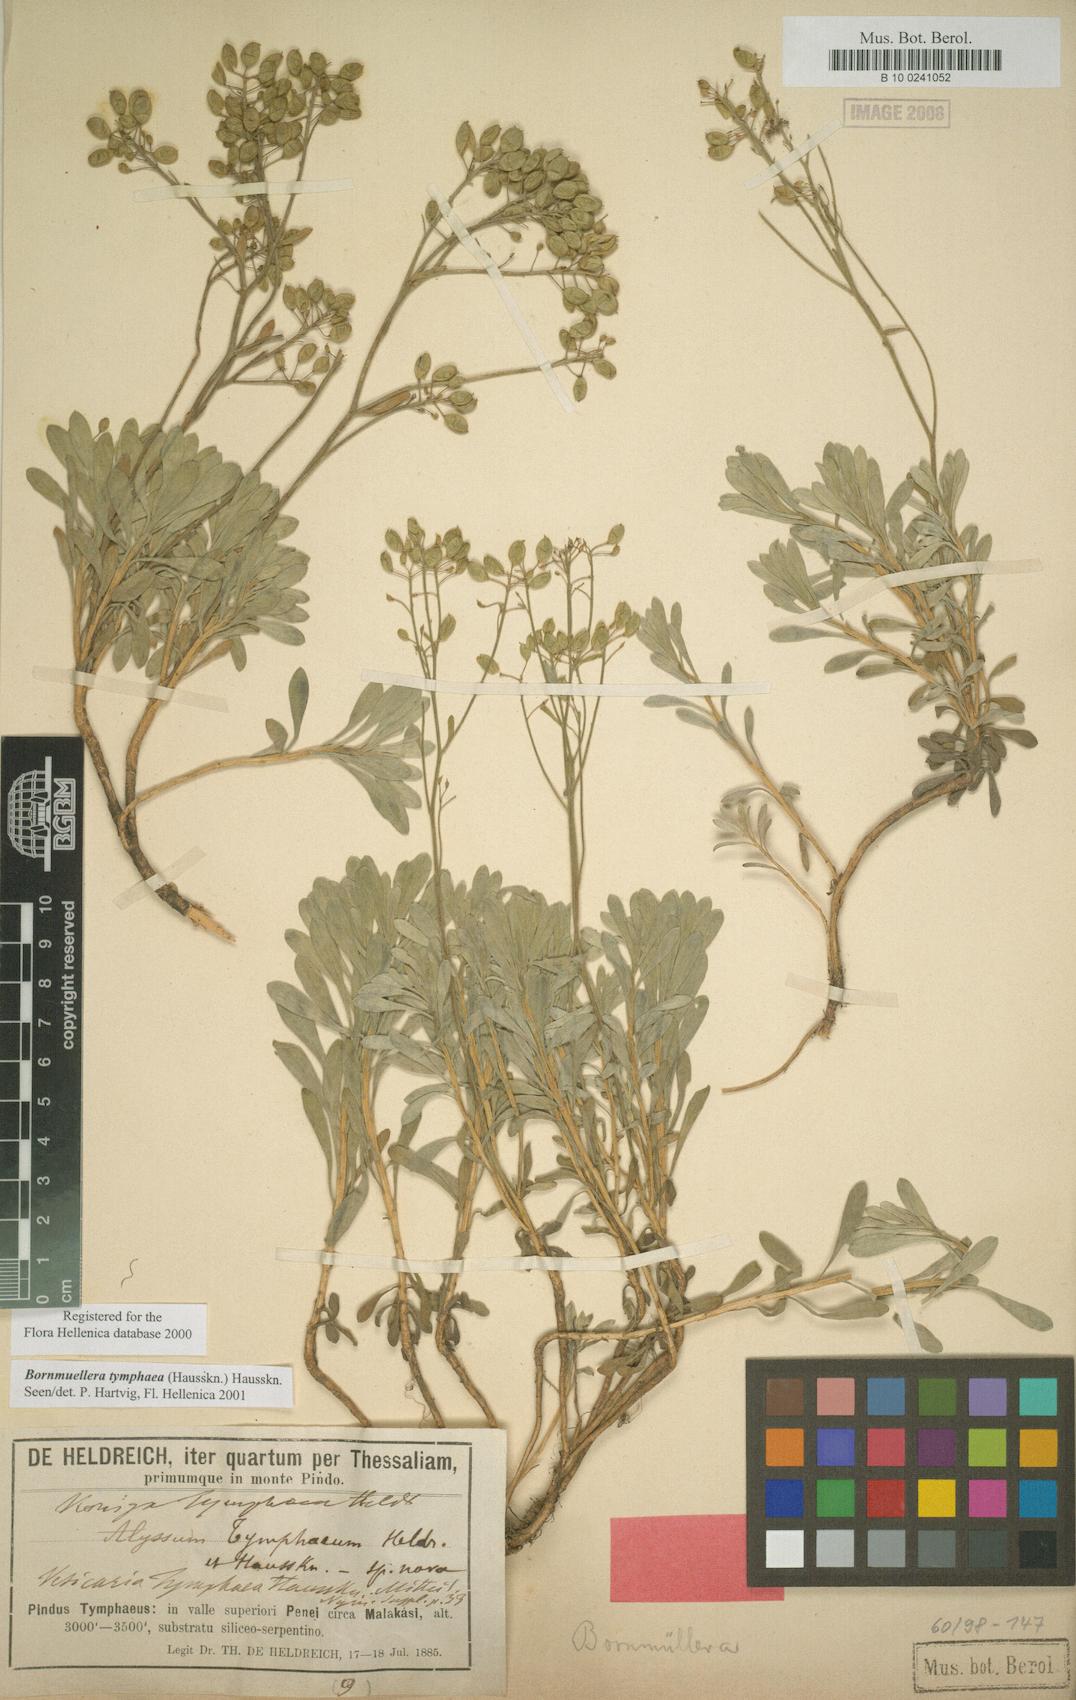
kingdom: Plantae
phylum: Tracheophyta
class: Magnoliopsida
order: Brassicales
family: Brassicaceae
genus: Bornmuellera
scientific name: Bornmuellera tymphaea
